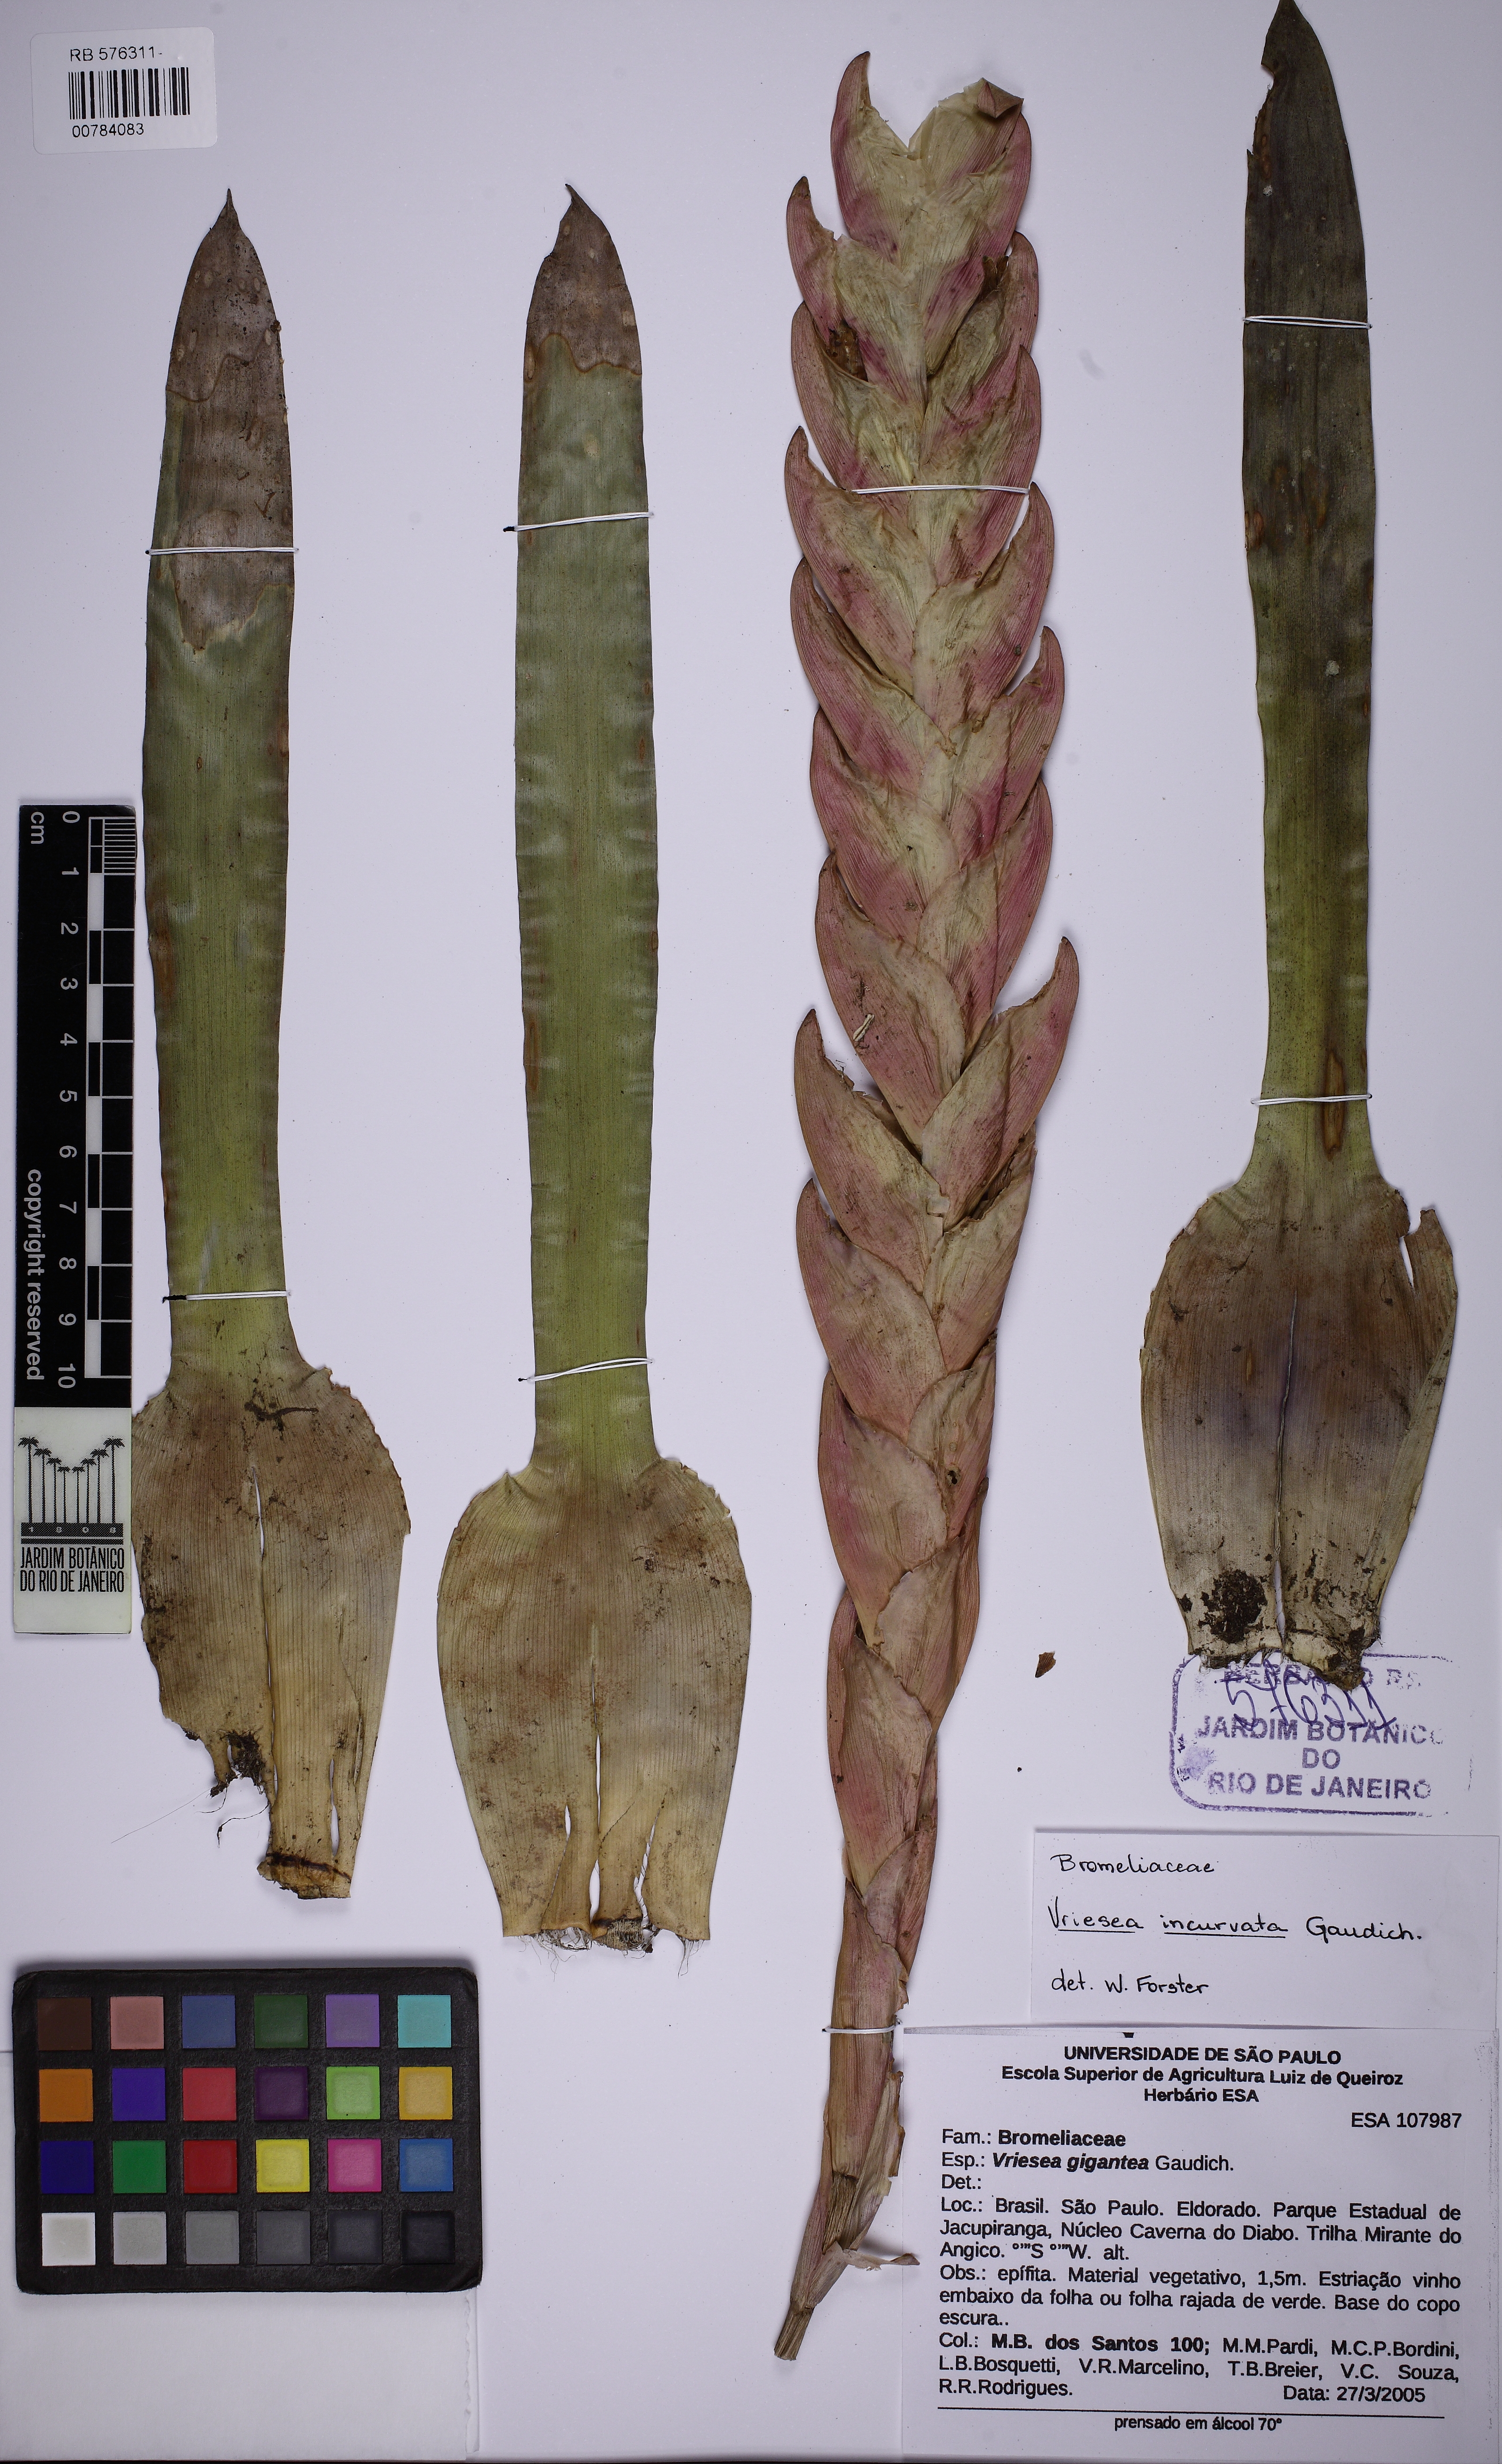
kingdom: Plantae
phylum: Tracheophyta
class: Liliopsida
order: Poales
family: Bromeliaceae
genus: Vriesea
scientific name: Vriesea incurvata
